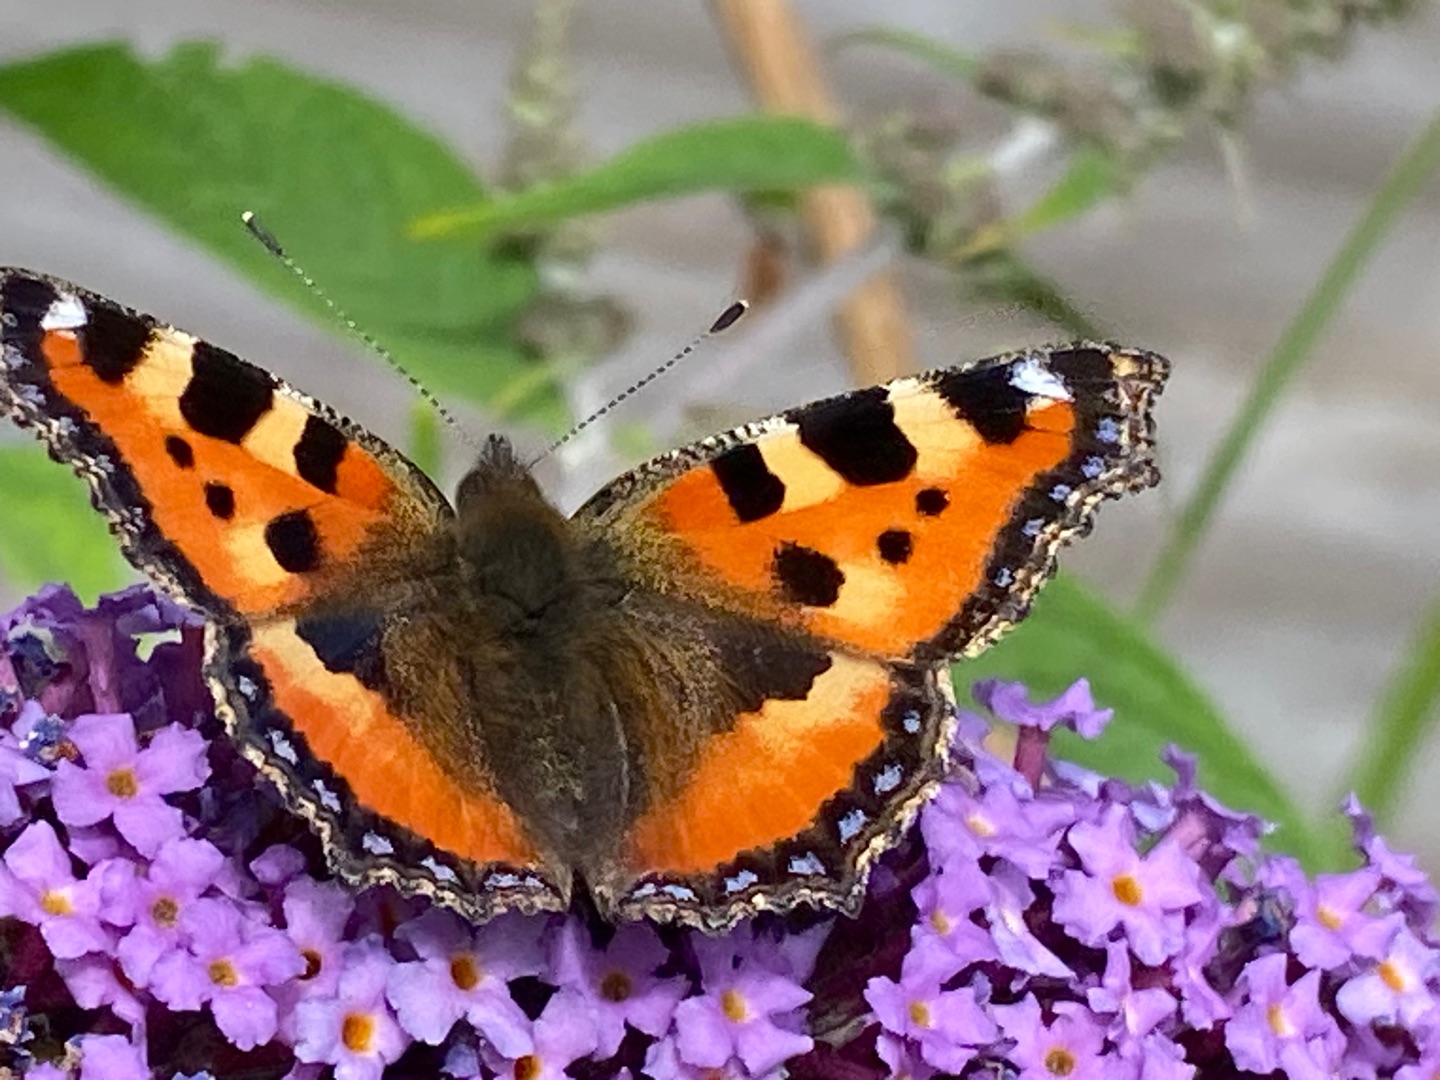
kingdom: Animalia
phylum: Arthropoda
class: Insecta
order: Lepidoptera
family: Nymphalidae
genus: Aglais
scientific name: Aglais urticae
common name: Nældens takvinge
